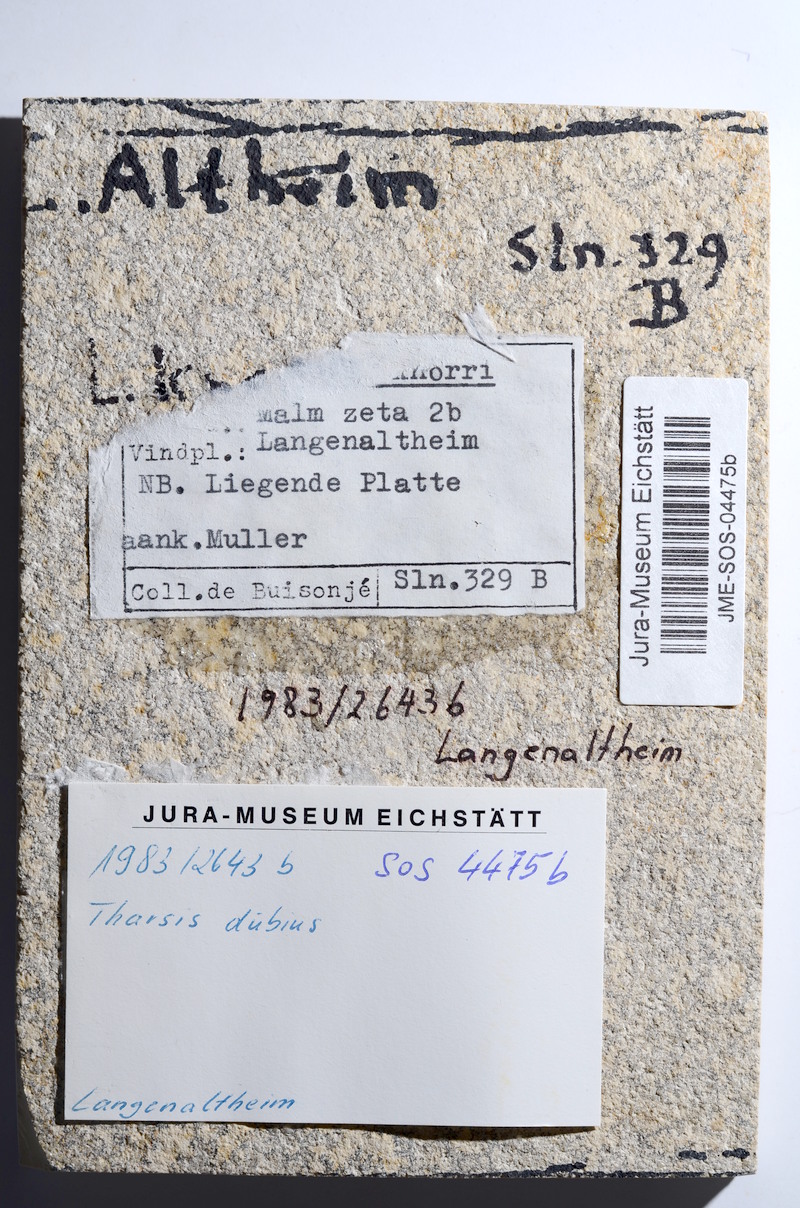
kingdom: Animalia
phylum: Chordata
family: Ascalaboidae
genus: Tharsis
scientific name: Tharsis dubius
